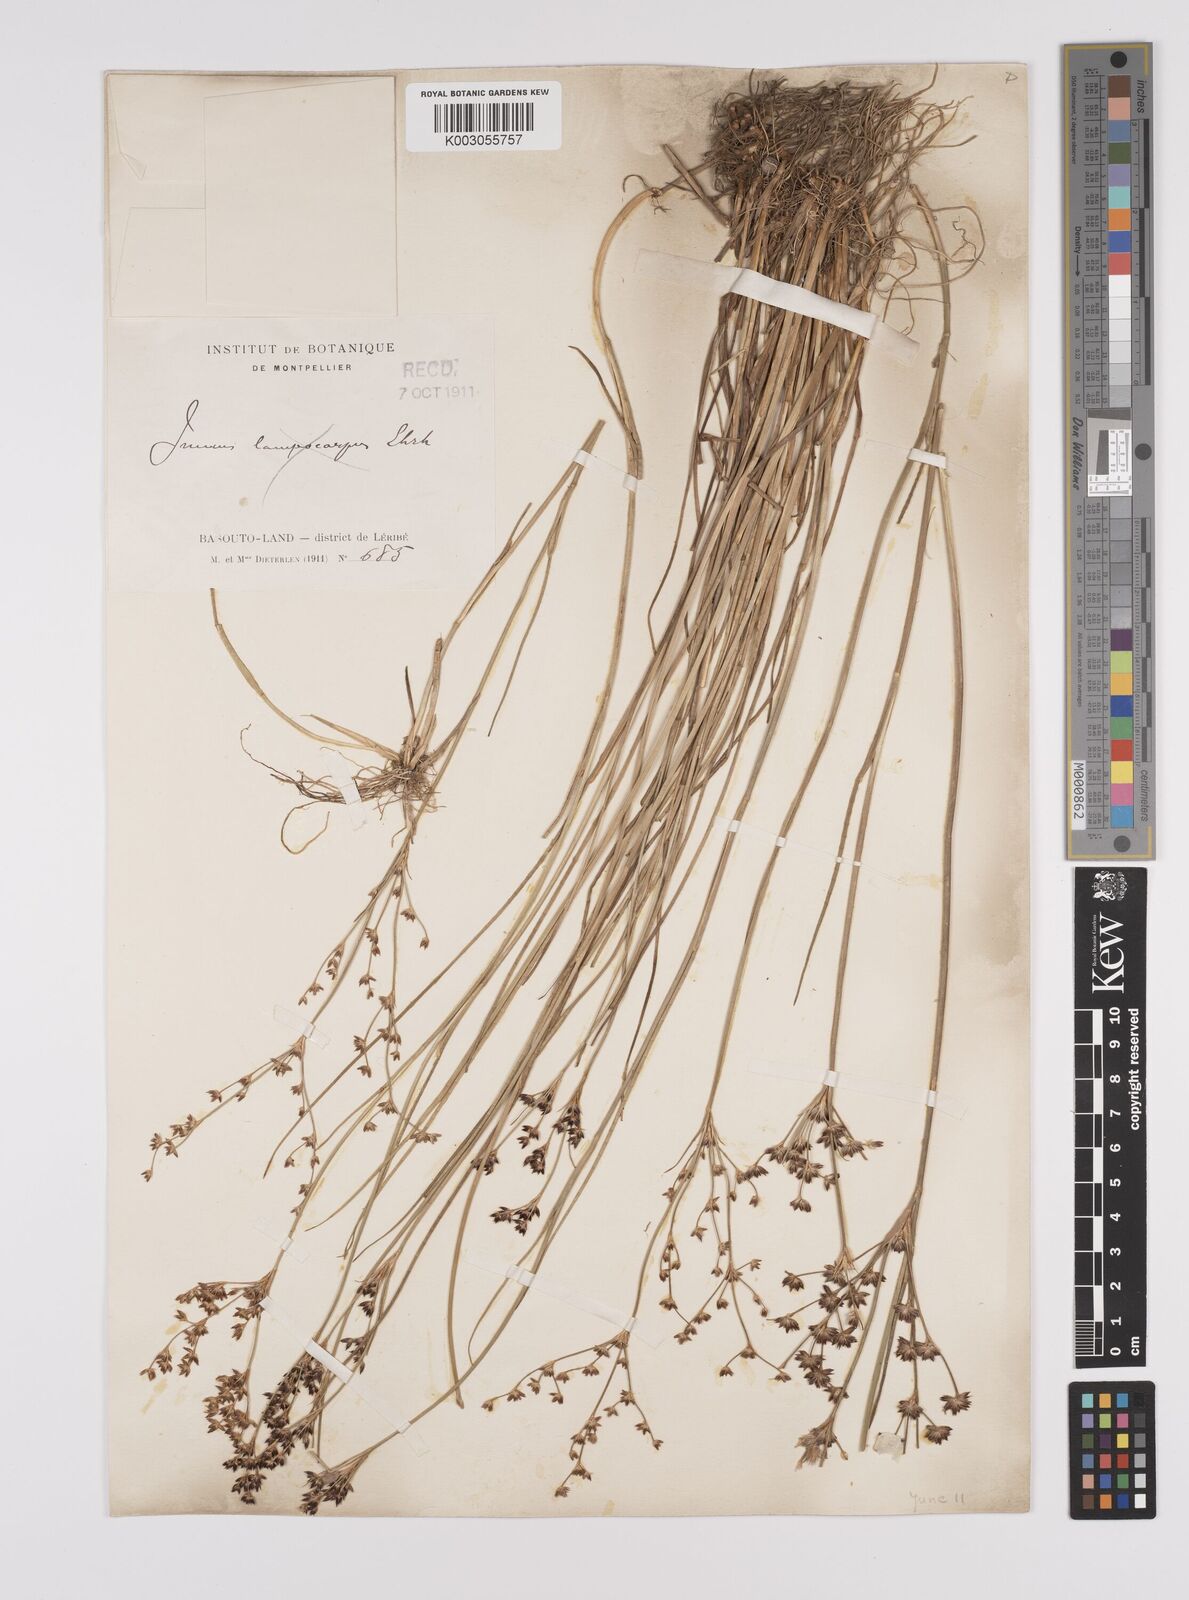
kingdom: Plantae
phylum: Tracheophyta
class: Liliopsida
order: Poales
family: Juncaceae
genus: Juncus
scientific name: Juncus exsertus
